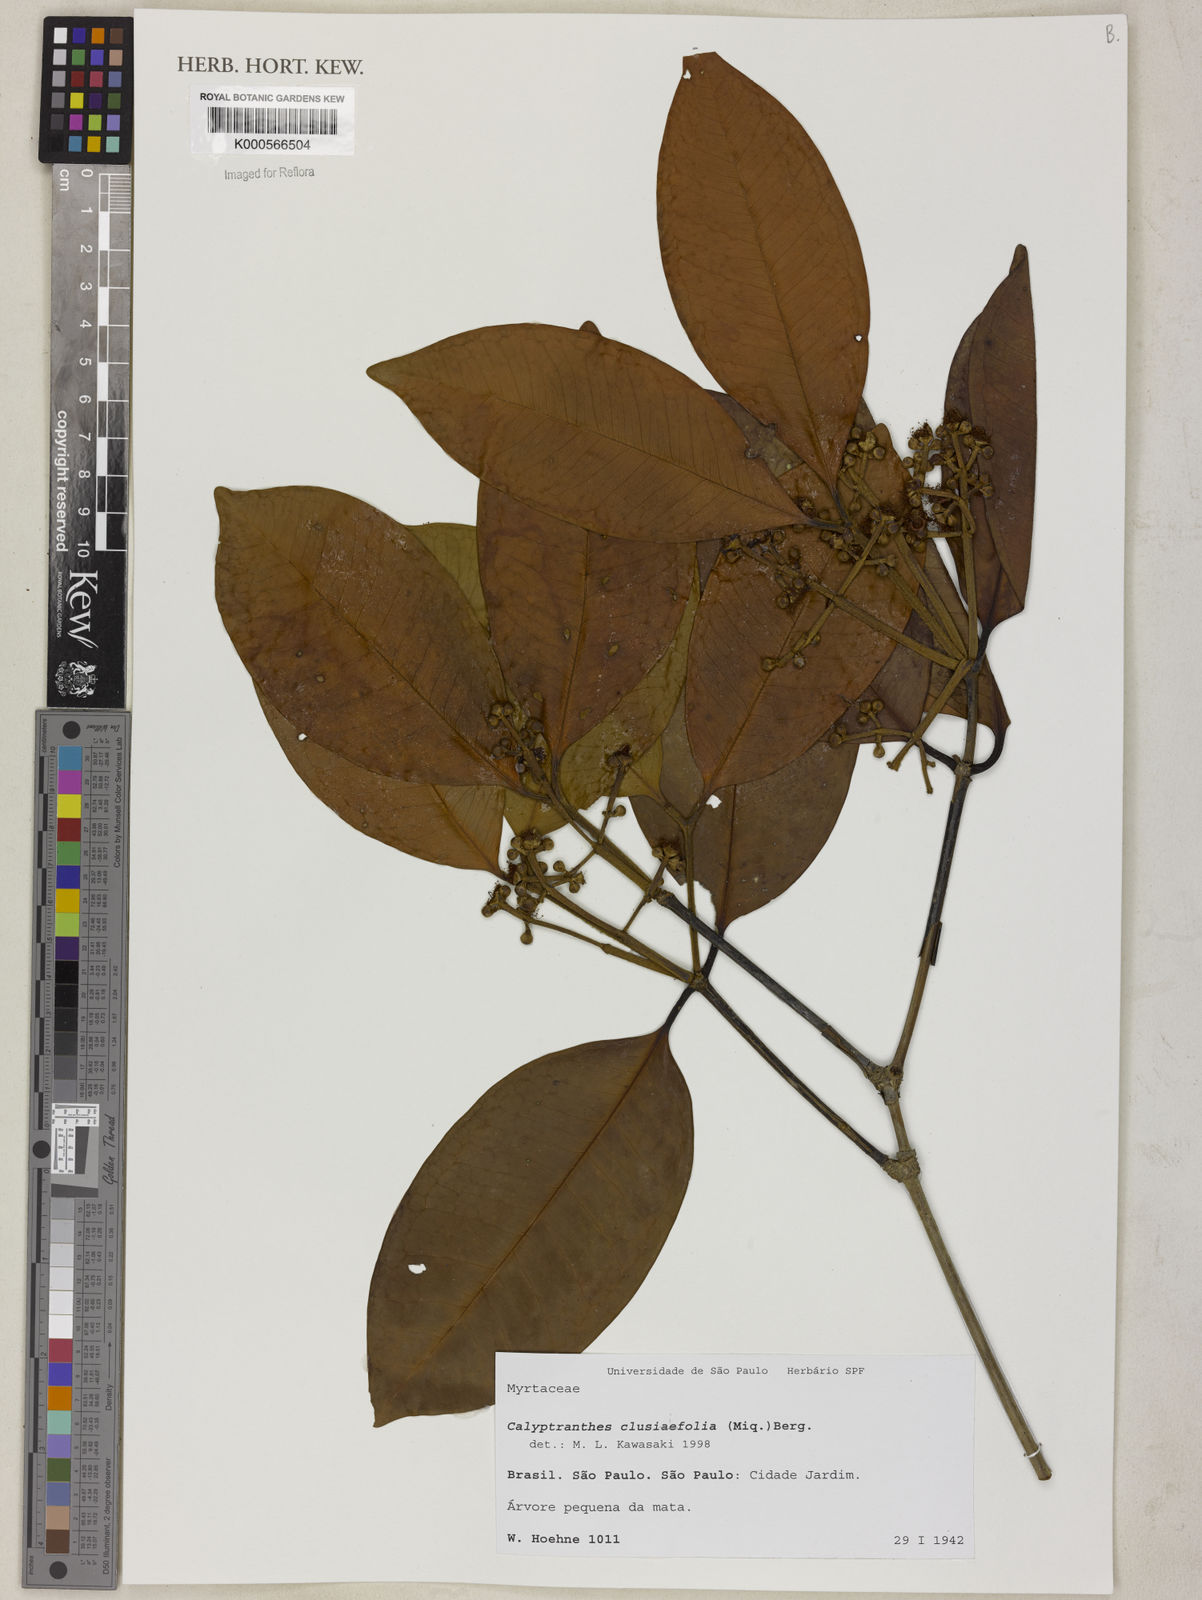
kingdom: Plantae
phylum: Tracheophyta
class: Magnoliopsida
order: Myrtales
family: Myrtaceae
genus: Myrcia
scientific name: Myrcia neoclusiifolia
